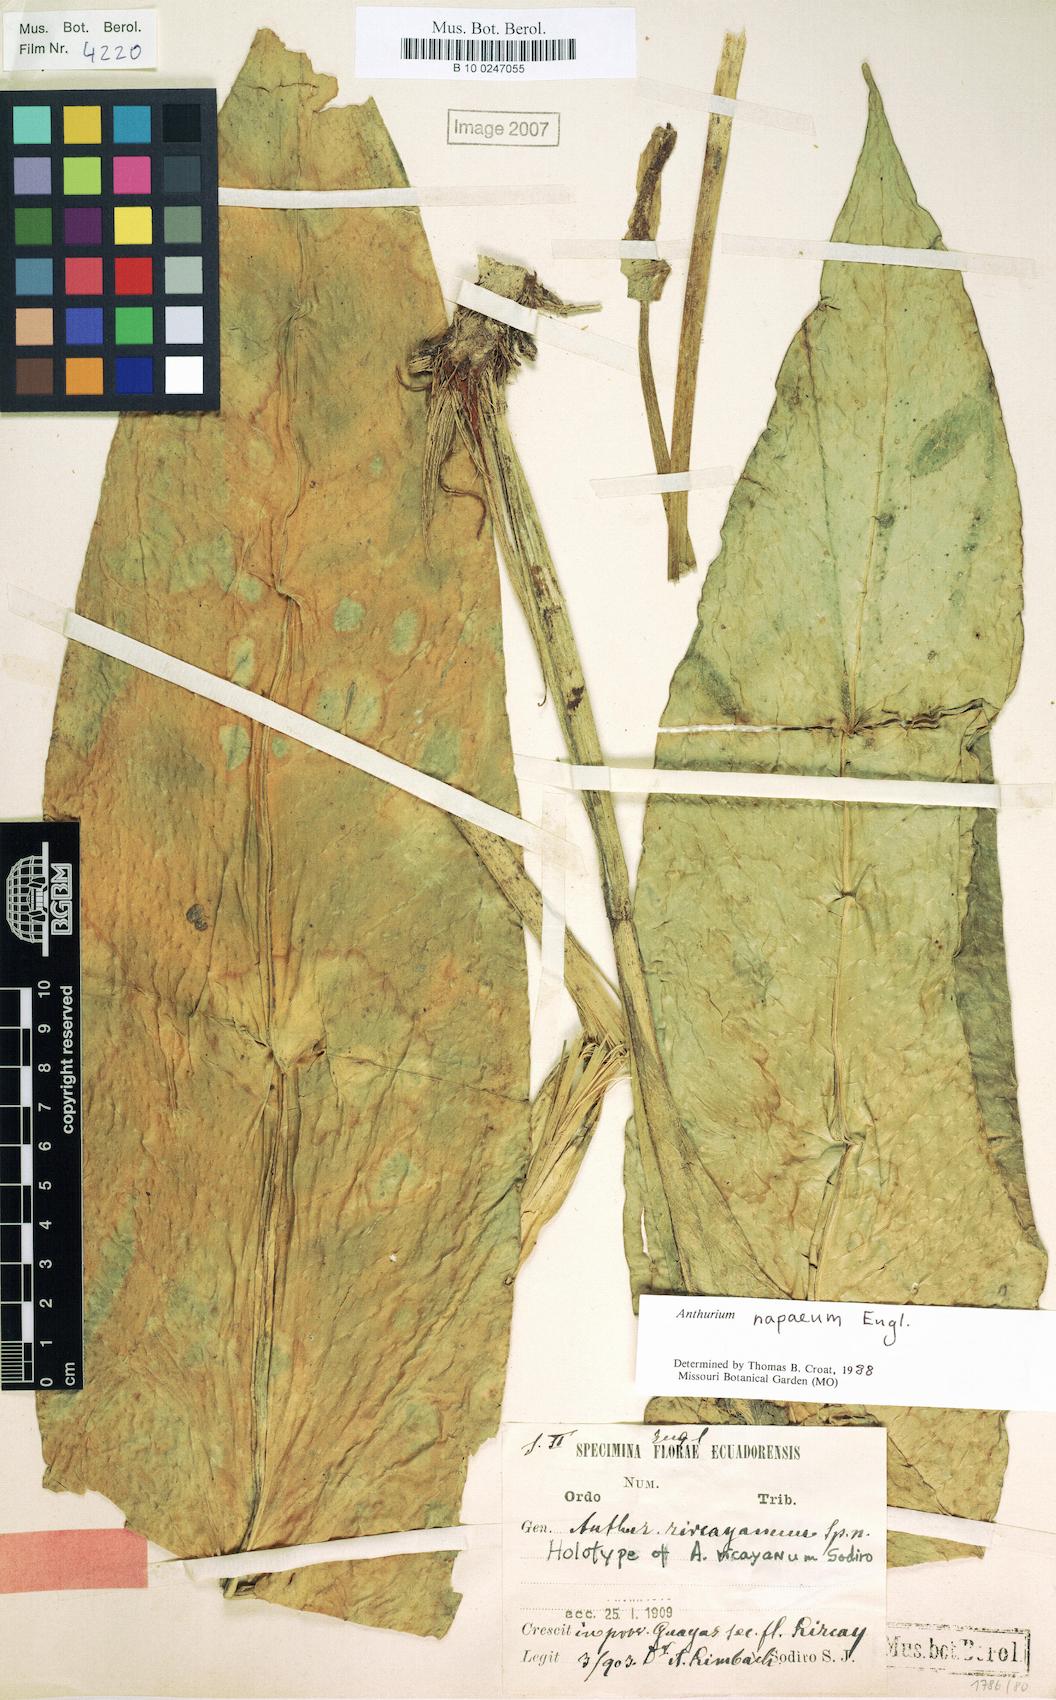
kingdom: Plantae
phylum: Tracheophyta
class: Liliopsida
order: Alismatales
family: Araceae
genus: Anthurium
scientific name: Anthurium napaeum
